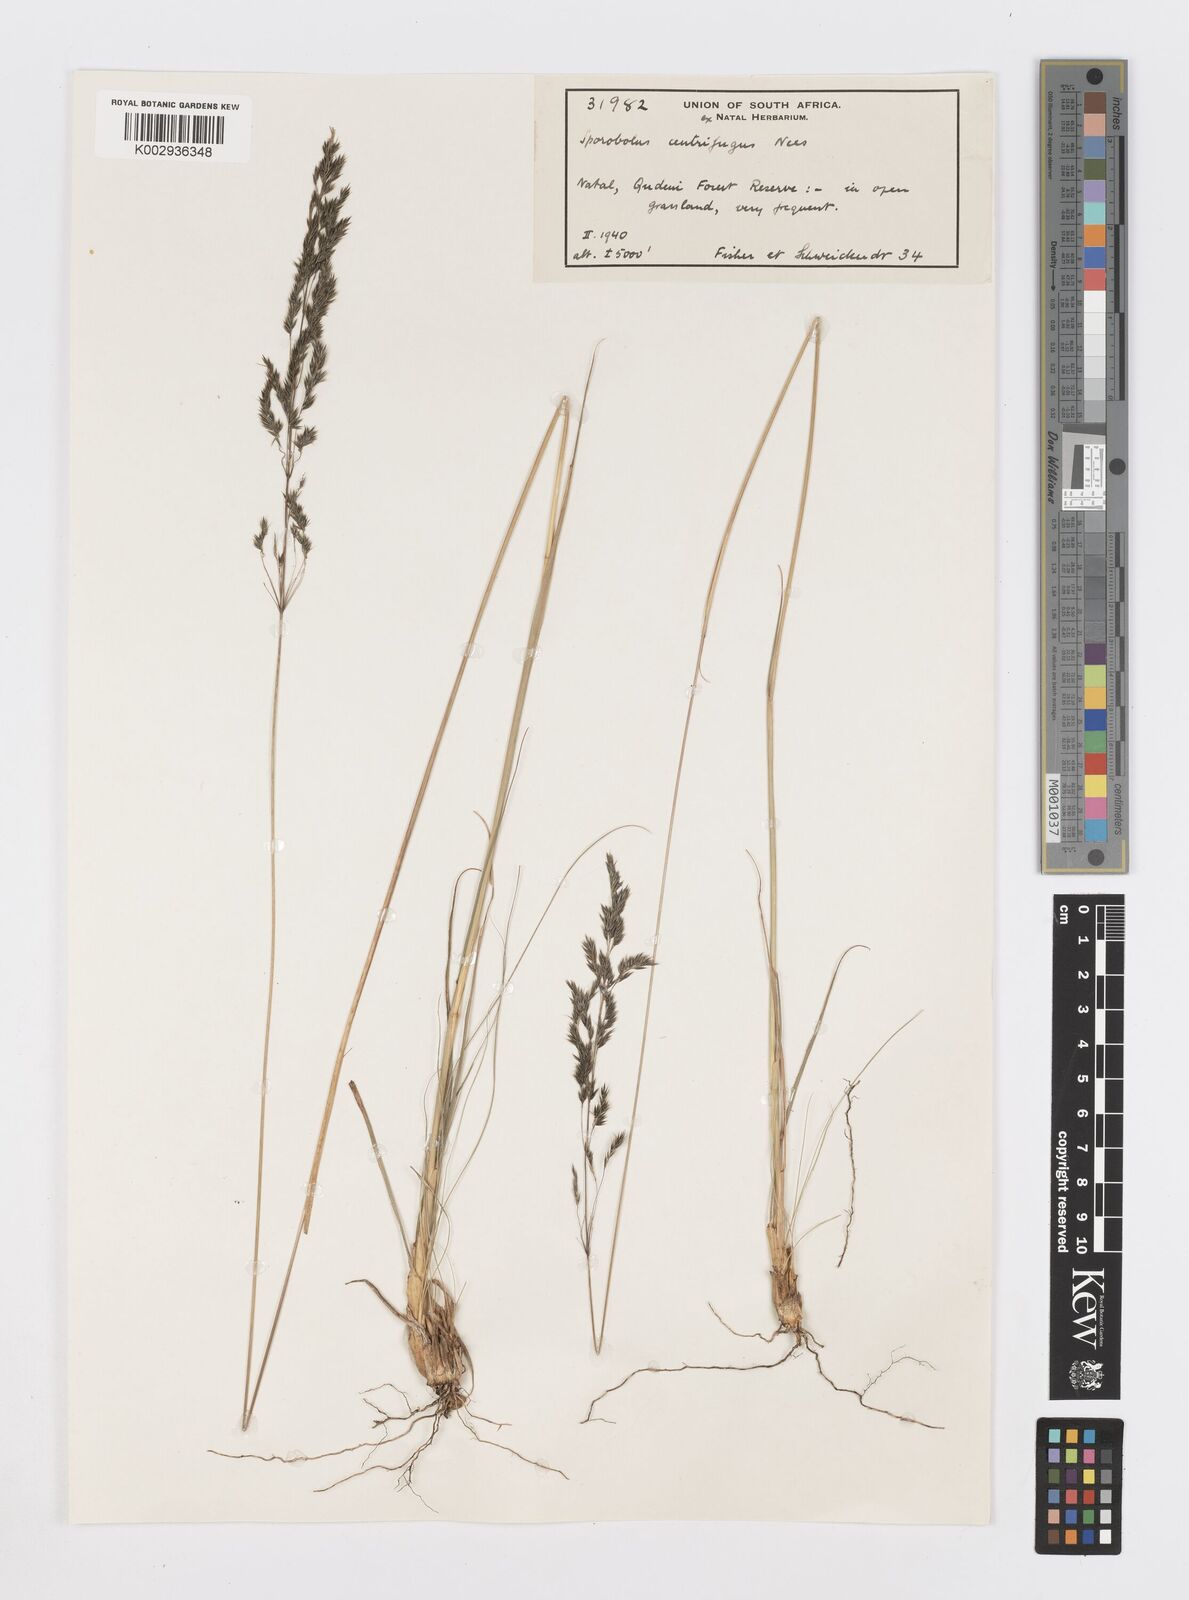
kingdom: Plantae
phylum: Tracheophyta
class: Liliopsida
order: Poales
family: Poaceae
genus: Sporobolus
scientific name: Sporobolus centrifugus
